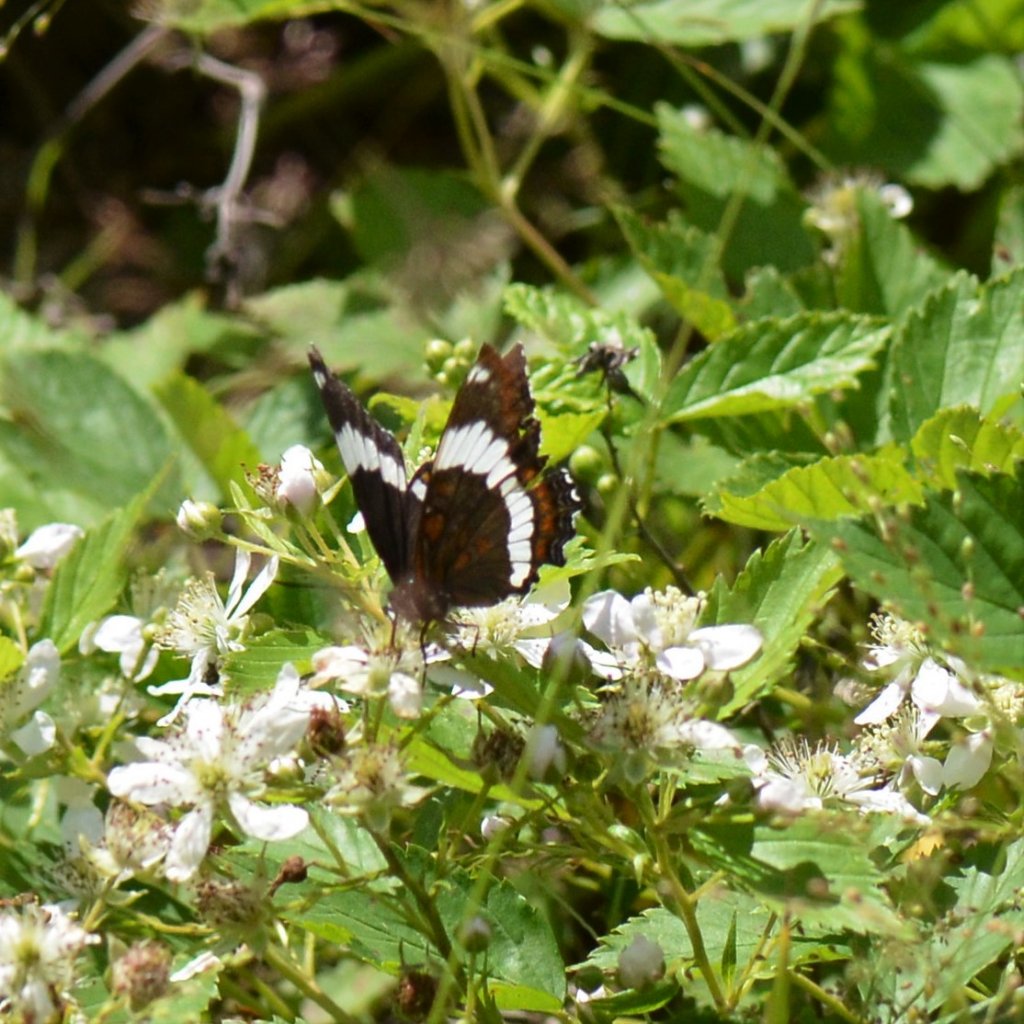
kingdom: Animalia
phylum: Arthropoda
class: Insecta
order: Lepidoptera
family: Nymphalidae
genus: Limenitis
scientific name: Limenitis arthemis
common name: Red-spotted Admiral
